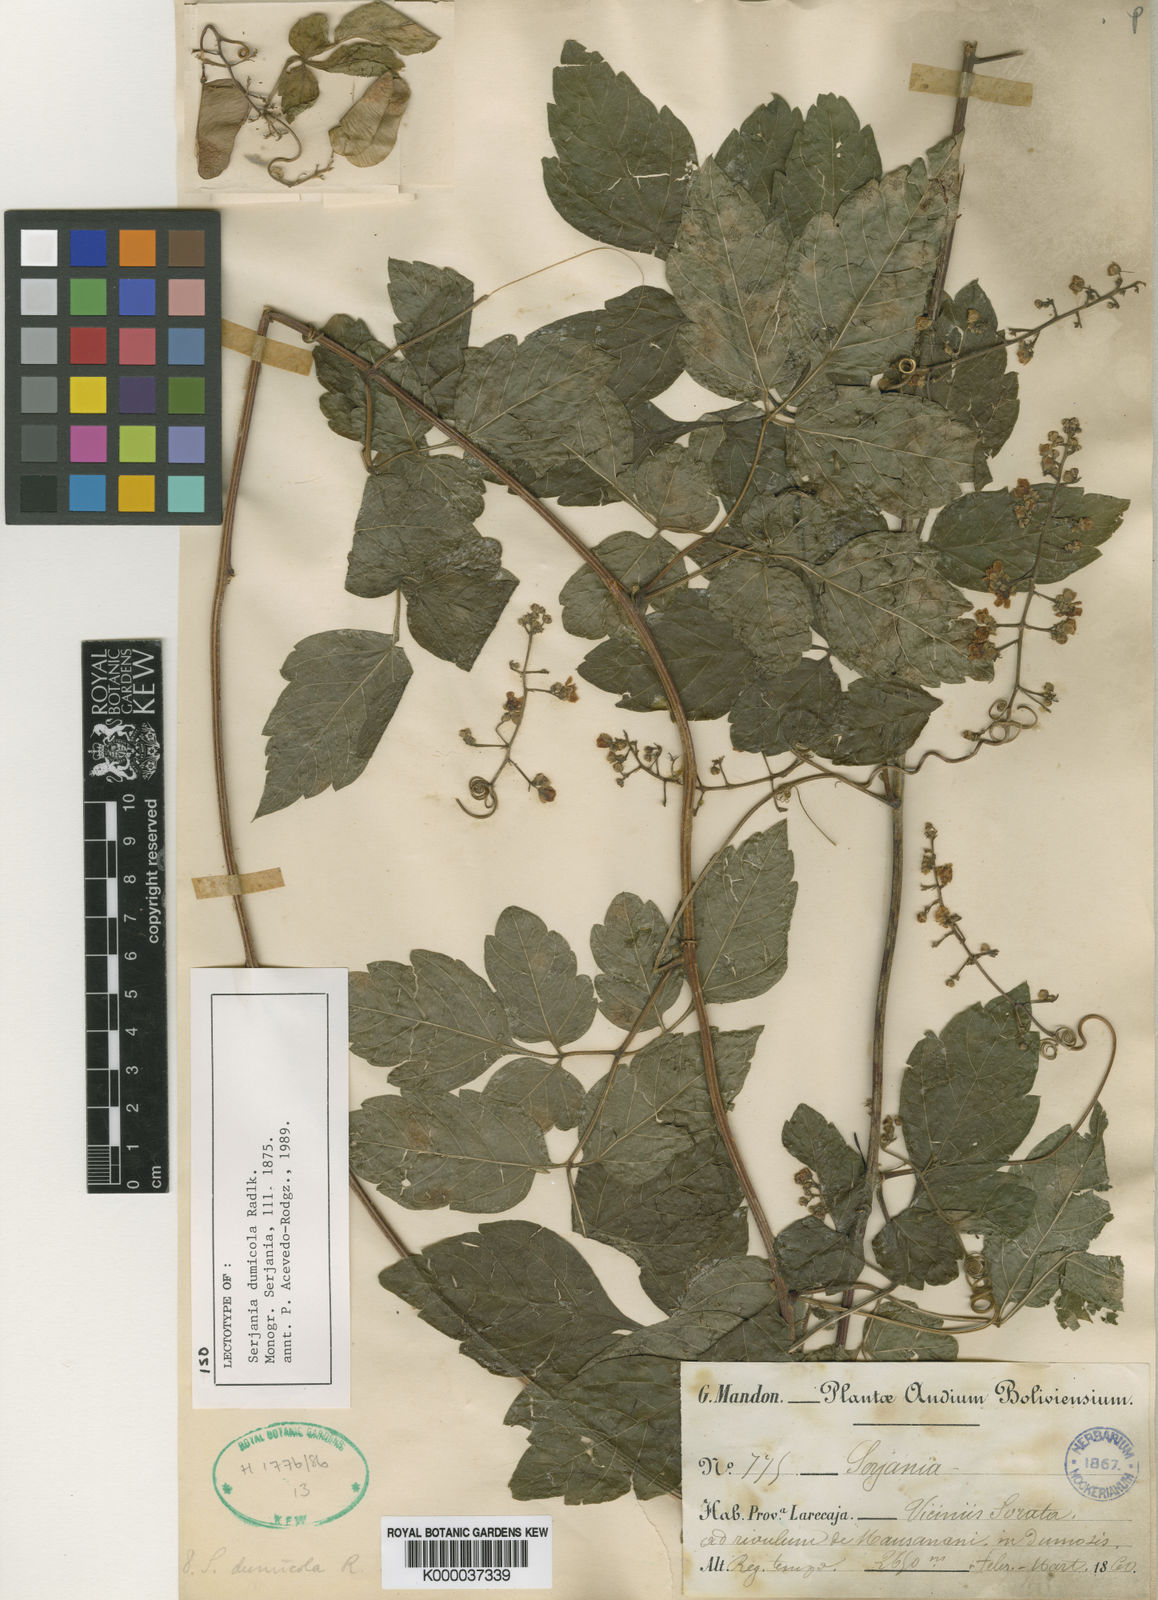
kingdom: Plantae
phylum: Tracheophyta
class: Magnoliopsida
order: Sapindales
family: Sapindaceae
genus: Serjania
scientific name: Serjania dumicola
